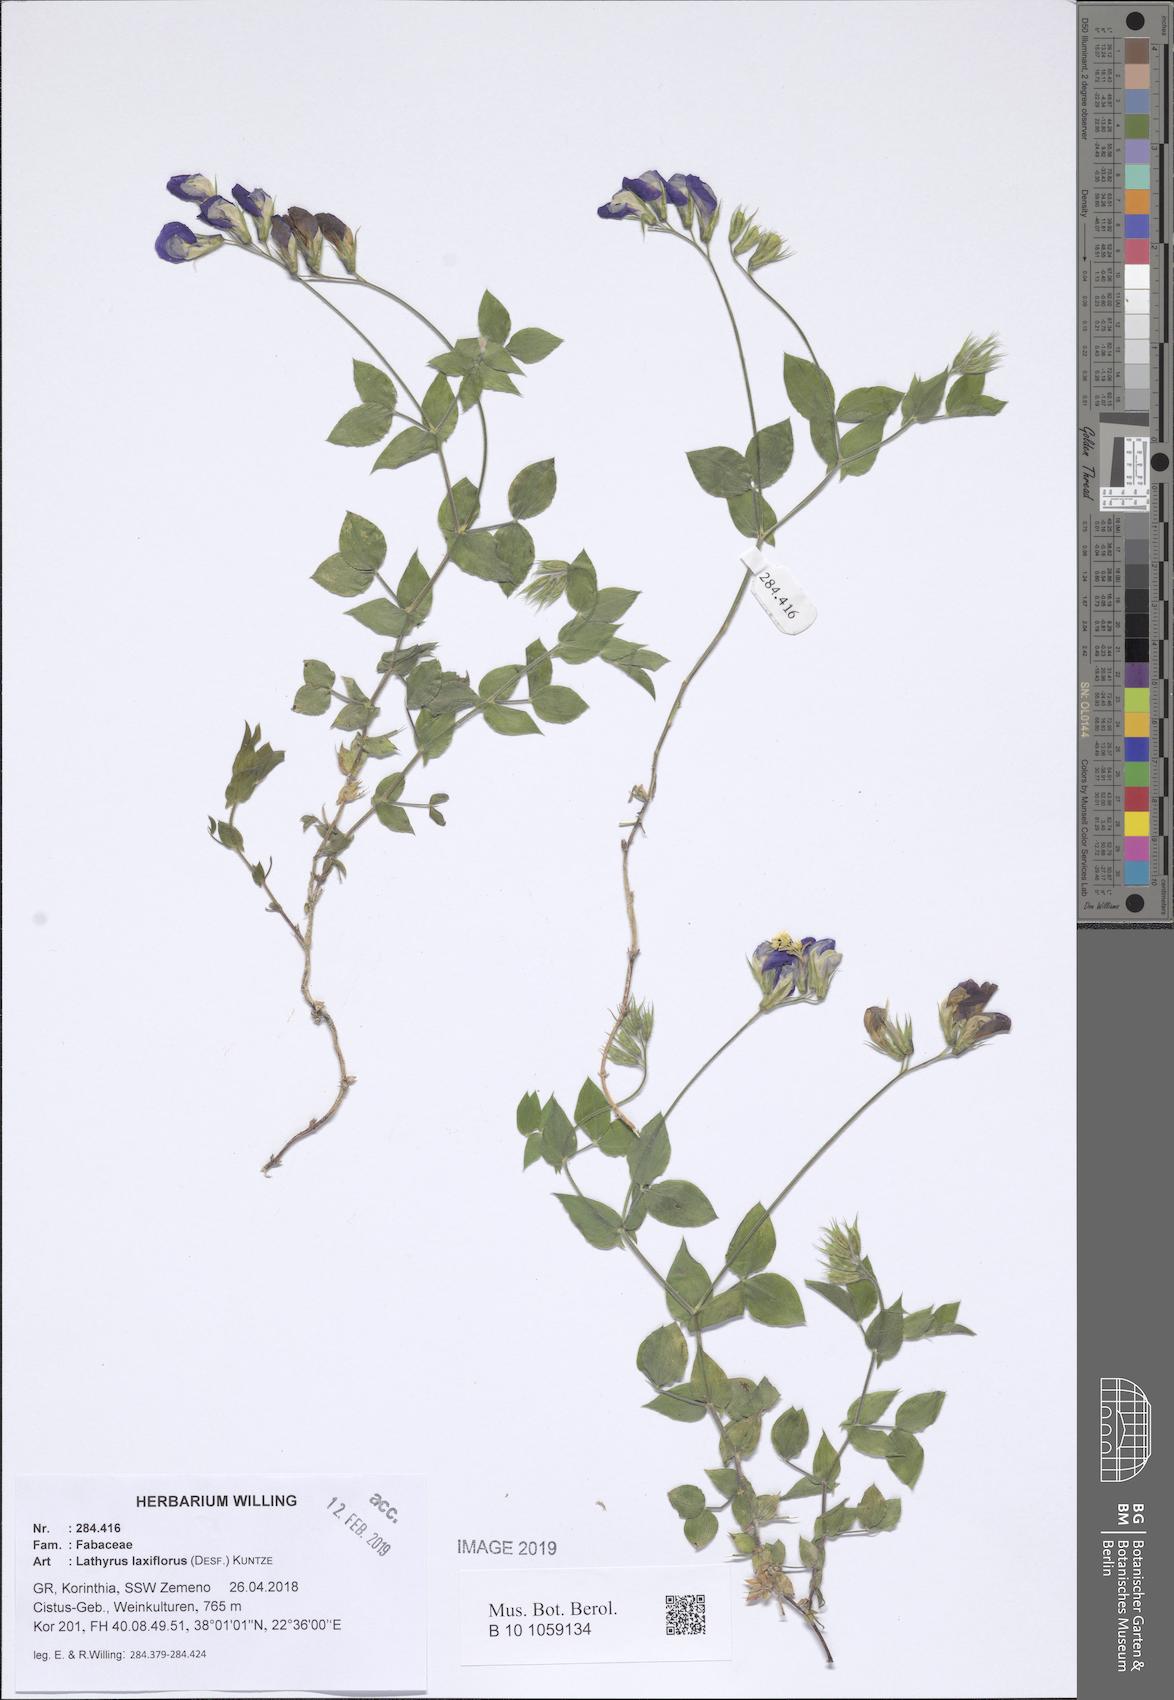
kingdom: Plantae
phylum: Tracheophyta
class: Magnoliopsida
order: Fabales
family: Fabaceae
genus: Lathyrus
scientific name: Lathyrus laxiflorus
